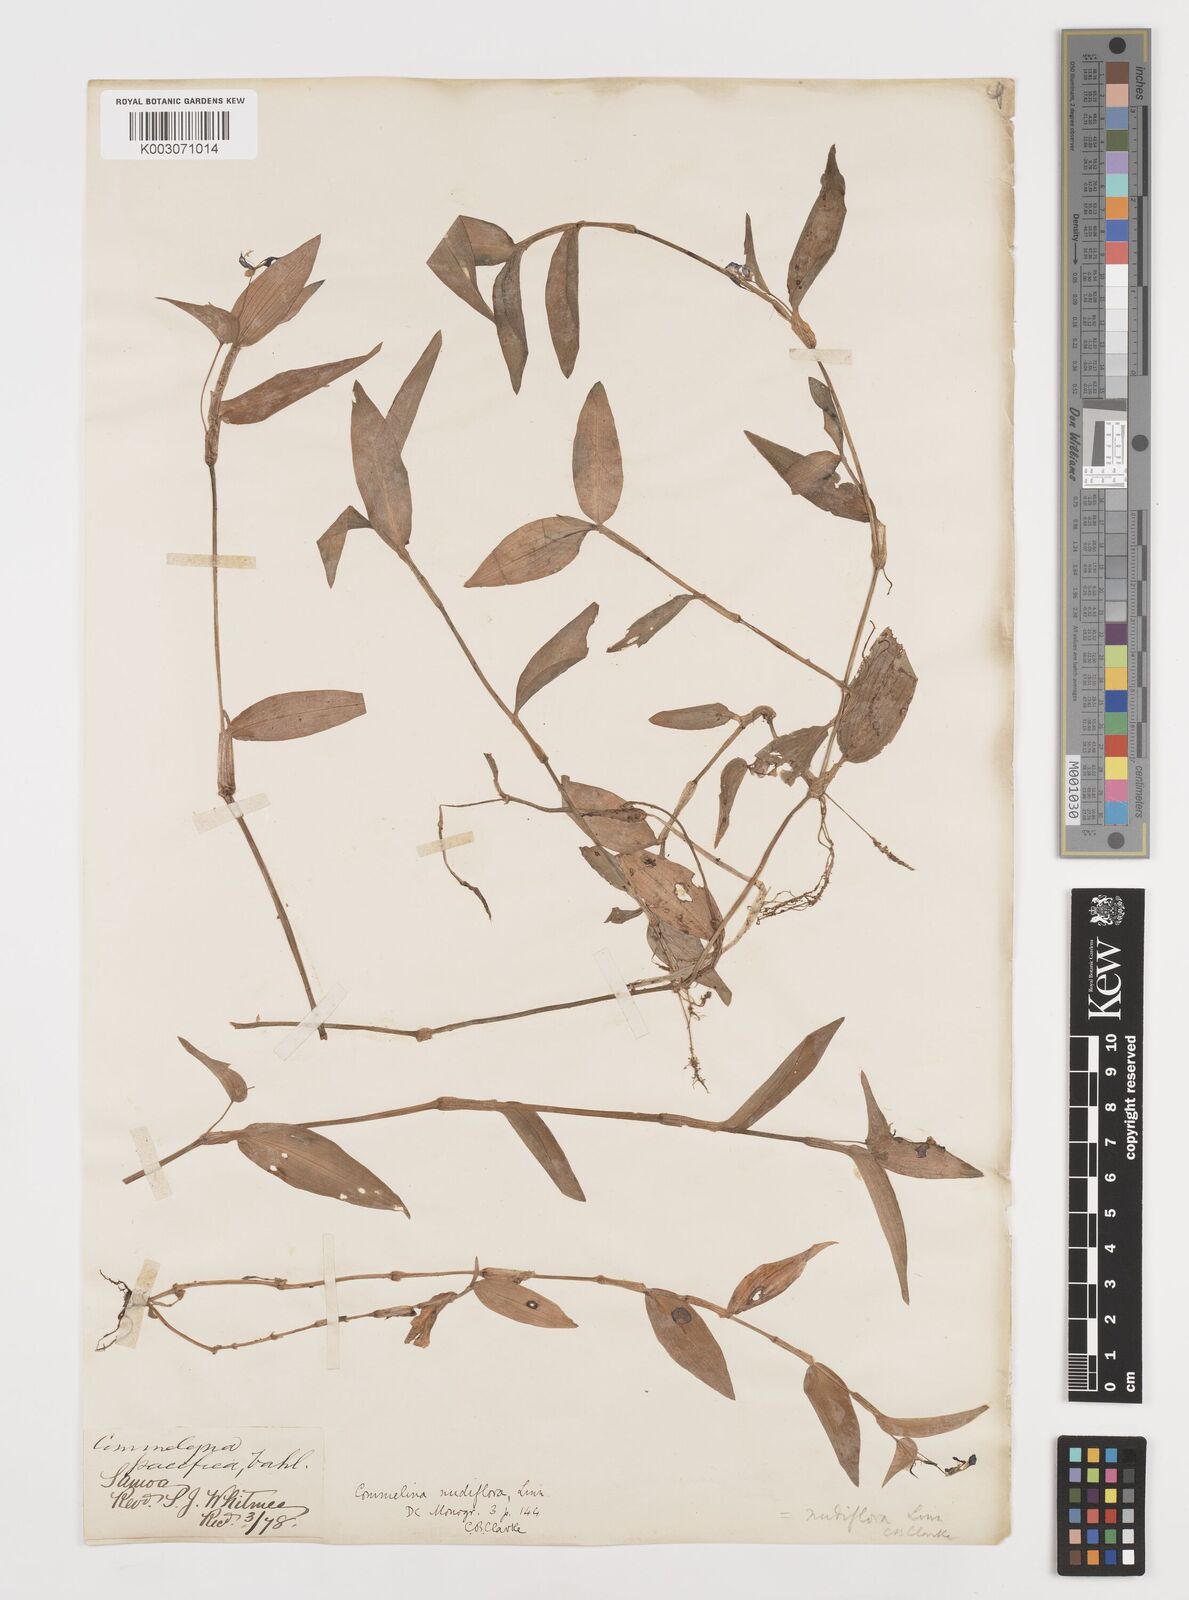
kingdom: Plantae
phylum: Tracheophyta
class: Liliopsida
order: Commelinales
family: Commelinaceae
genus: Murdannia
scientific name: Murdannia nudiflora
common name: Nakedstem dewflower
